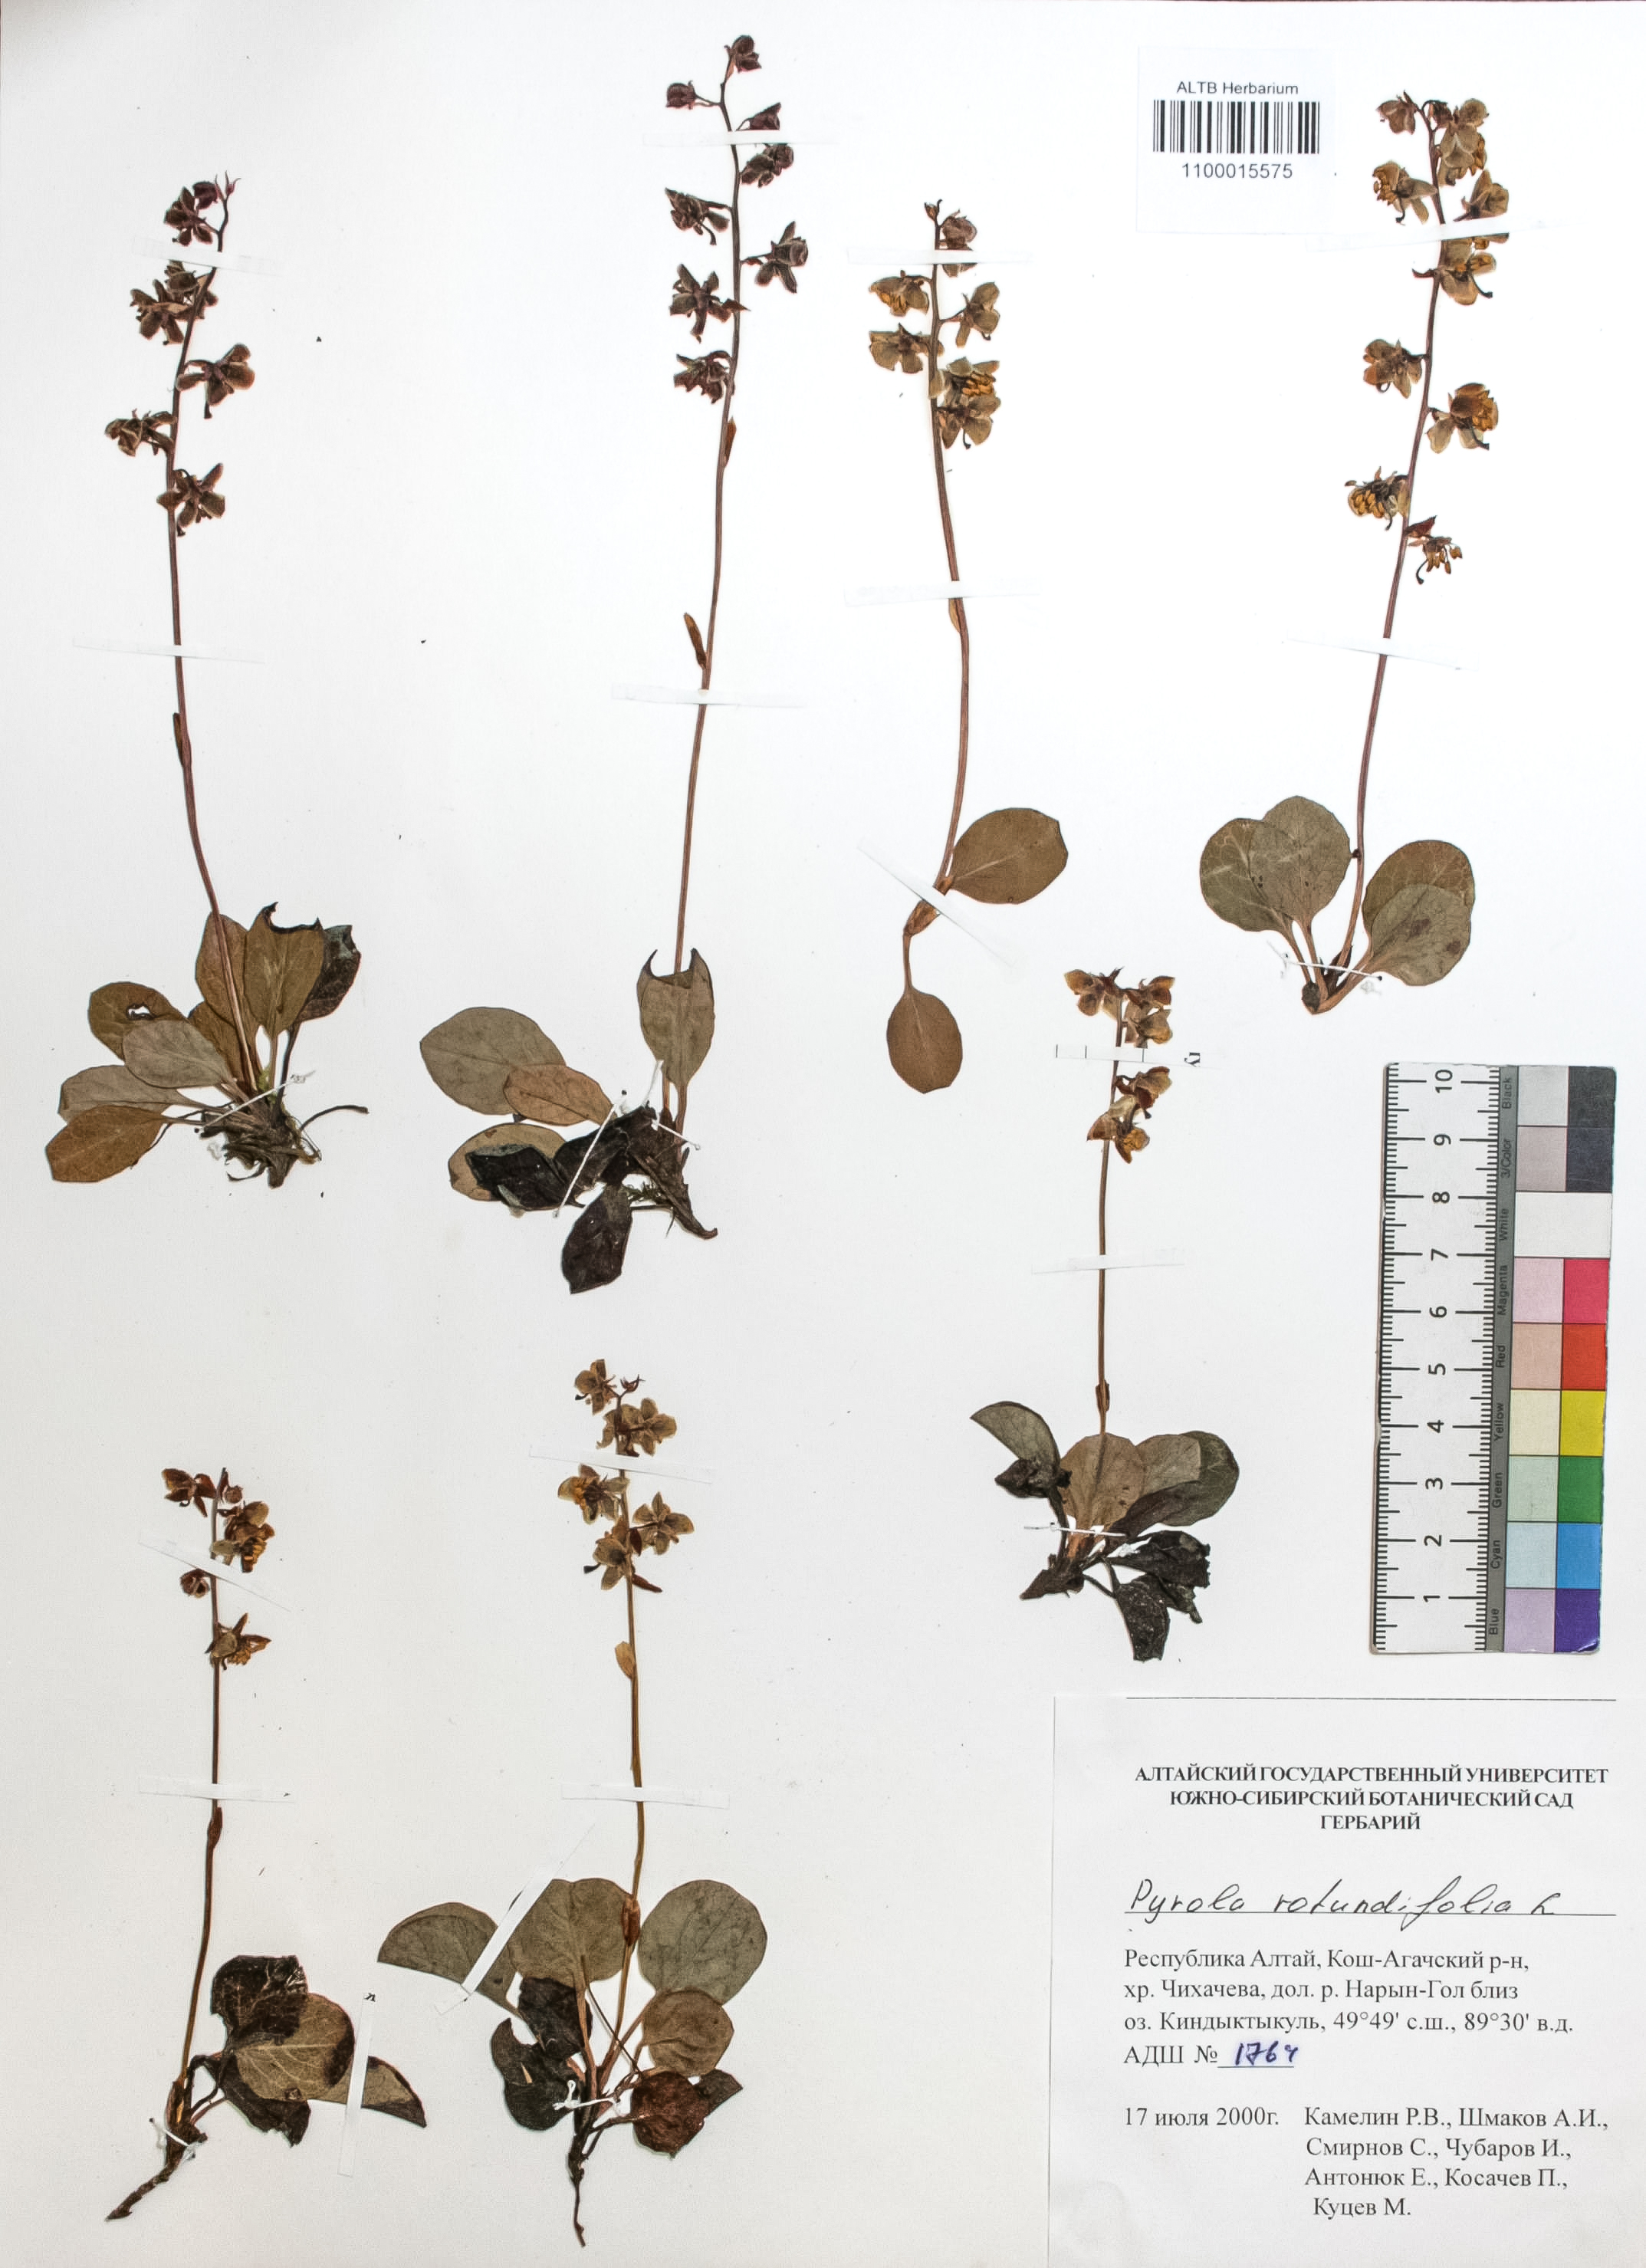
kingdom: Plantae
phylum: Tracheophyta
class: Magnoliopsida
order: Ericales
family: Ericaceae
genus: Pyrola
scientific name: Pyrola rotundifolia
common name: Round-leaved wintergreen
